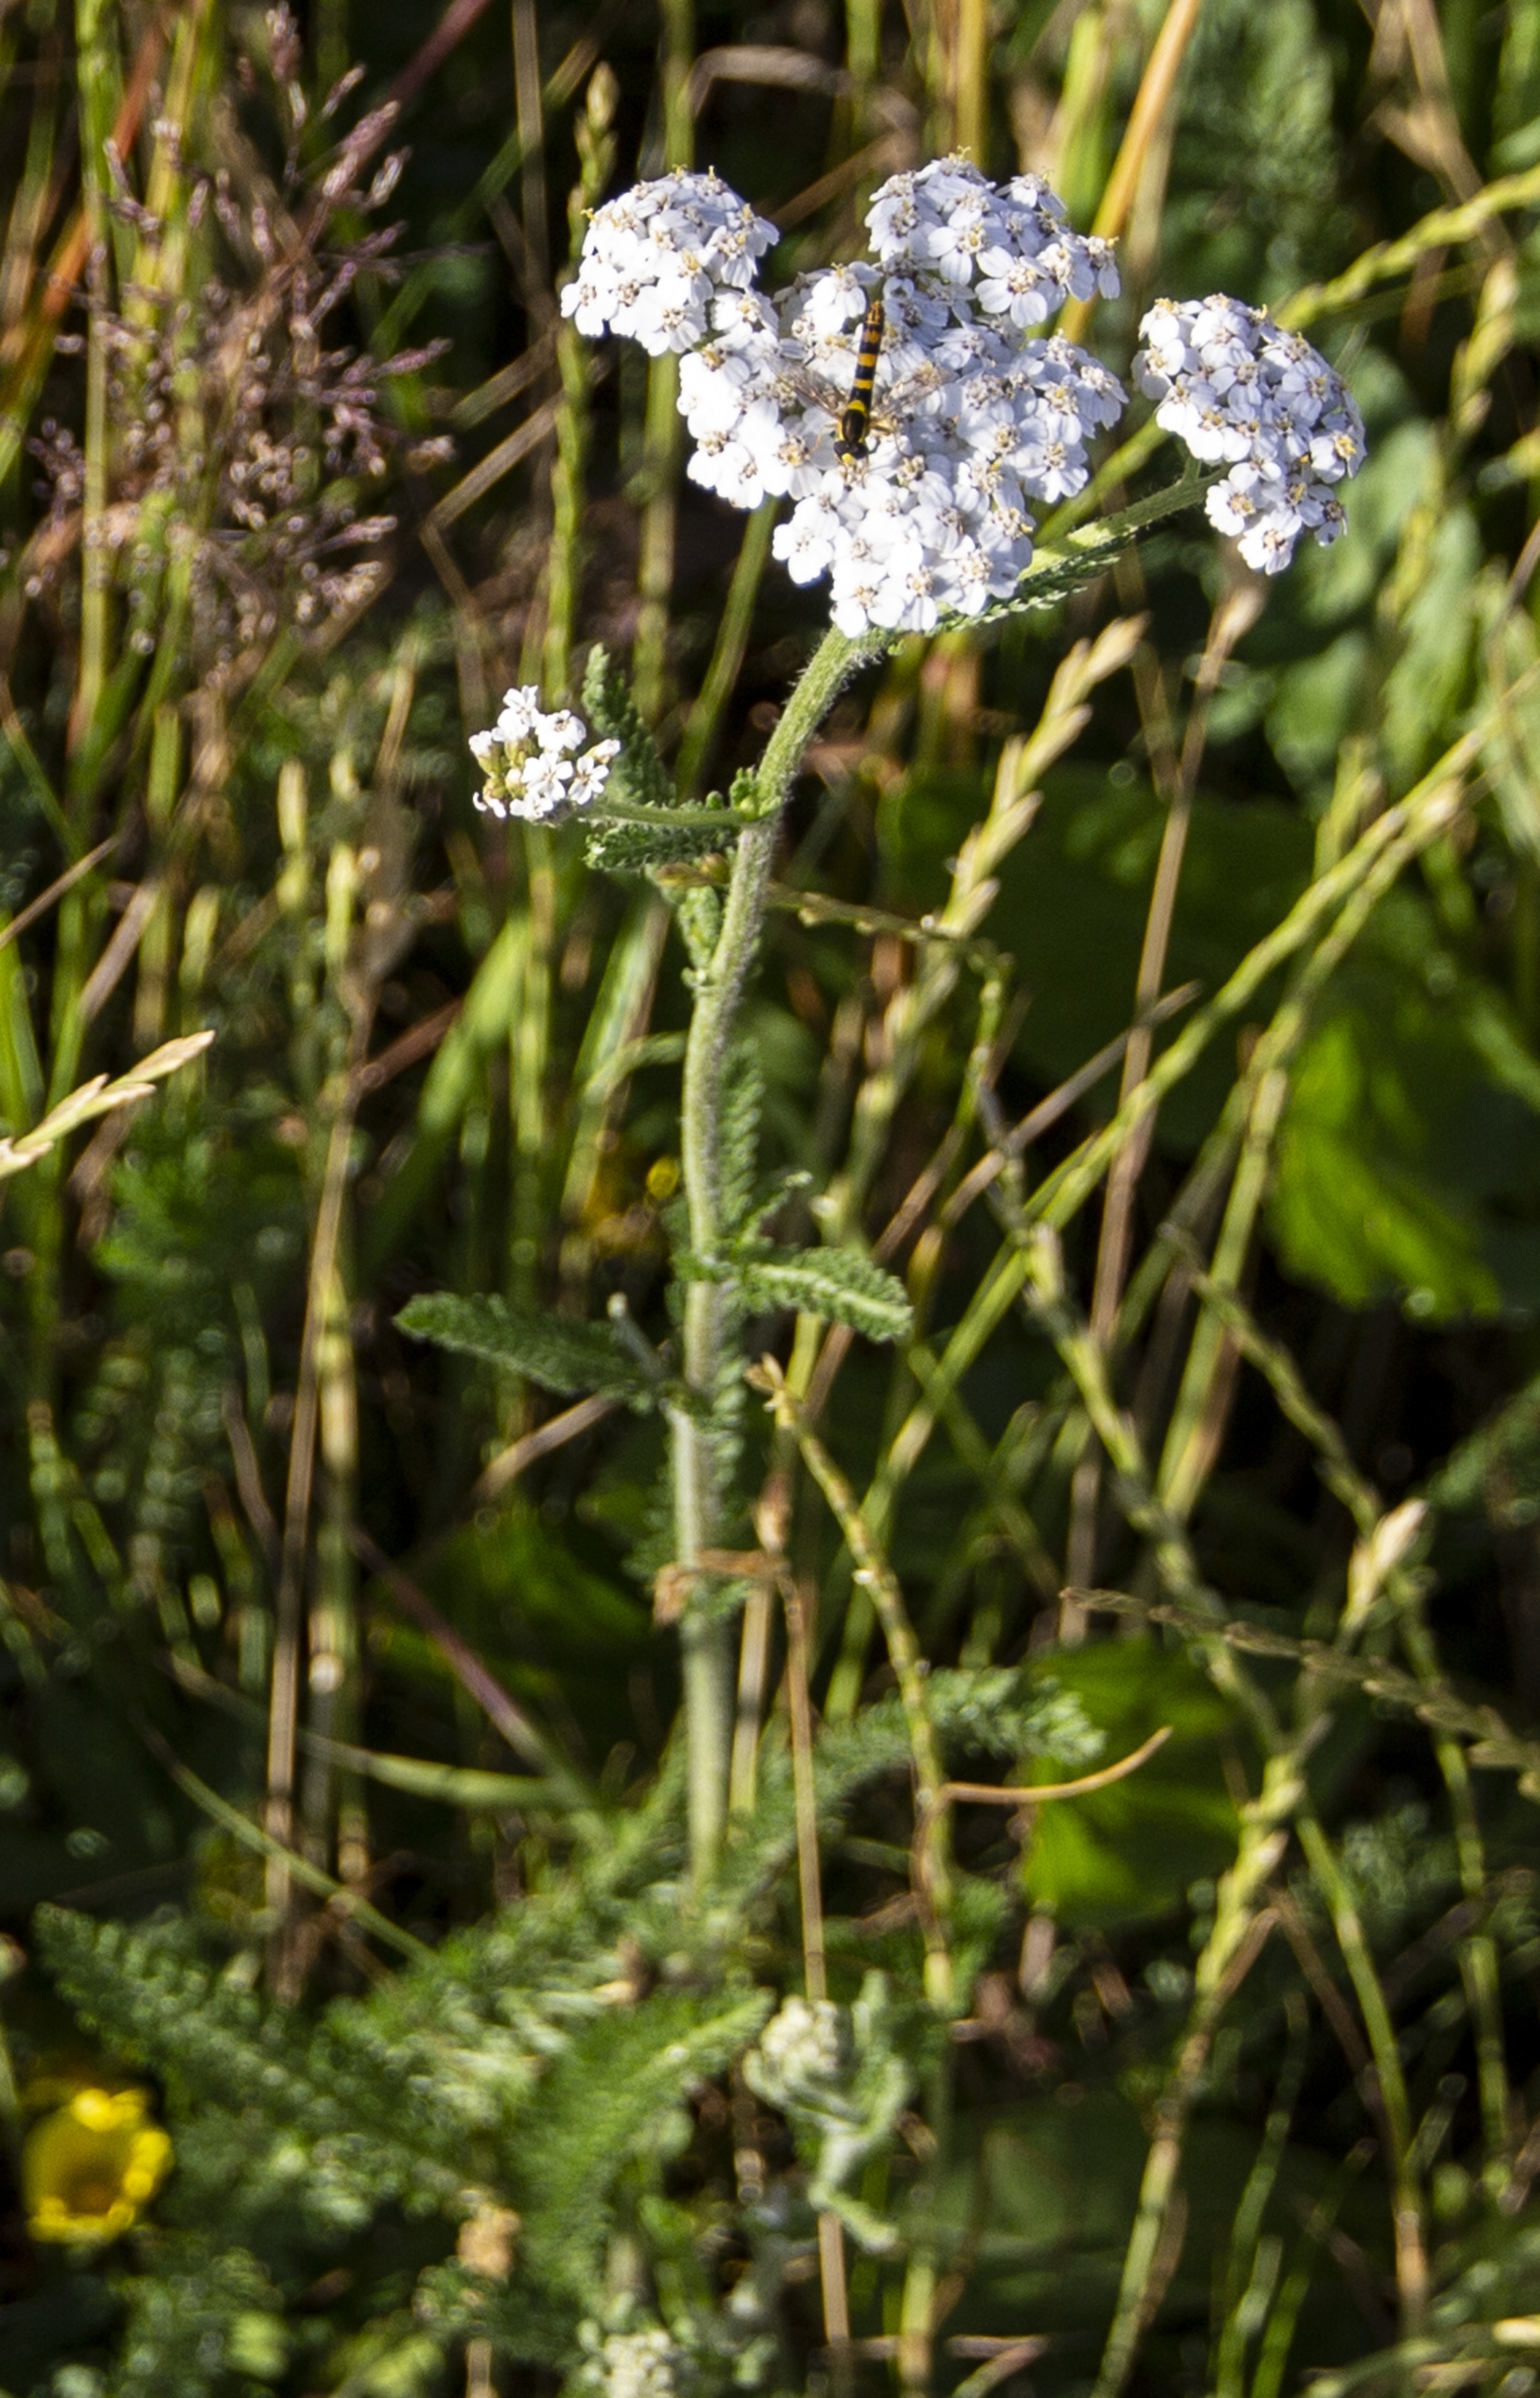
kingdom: Plantae
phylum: Tracheophyta
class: Magnoliopsida
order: Asterales
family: Asteraceae
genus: Achillea
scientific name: Achillea millefolium
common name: Almindelig røllike
